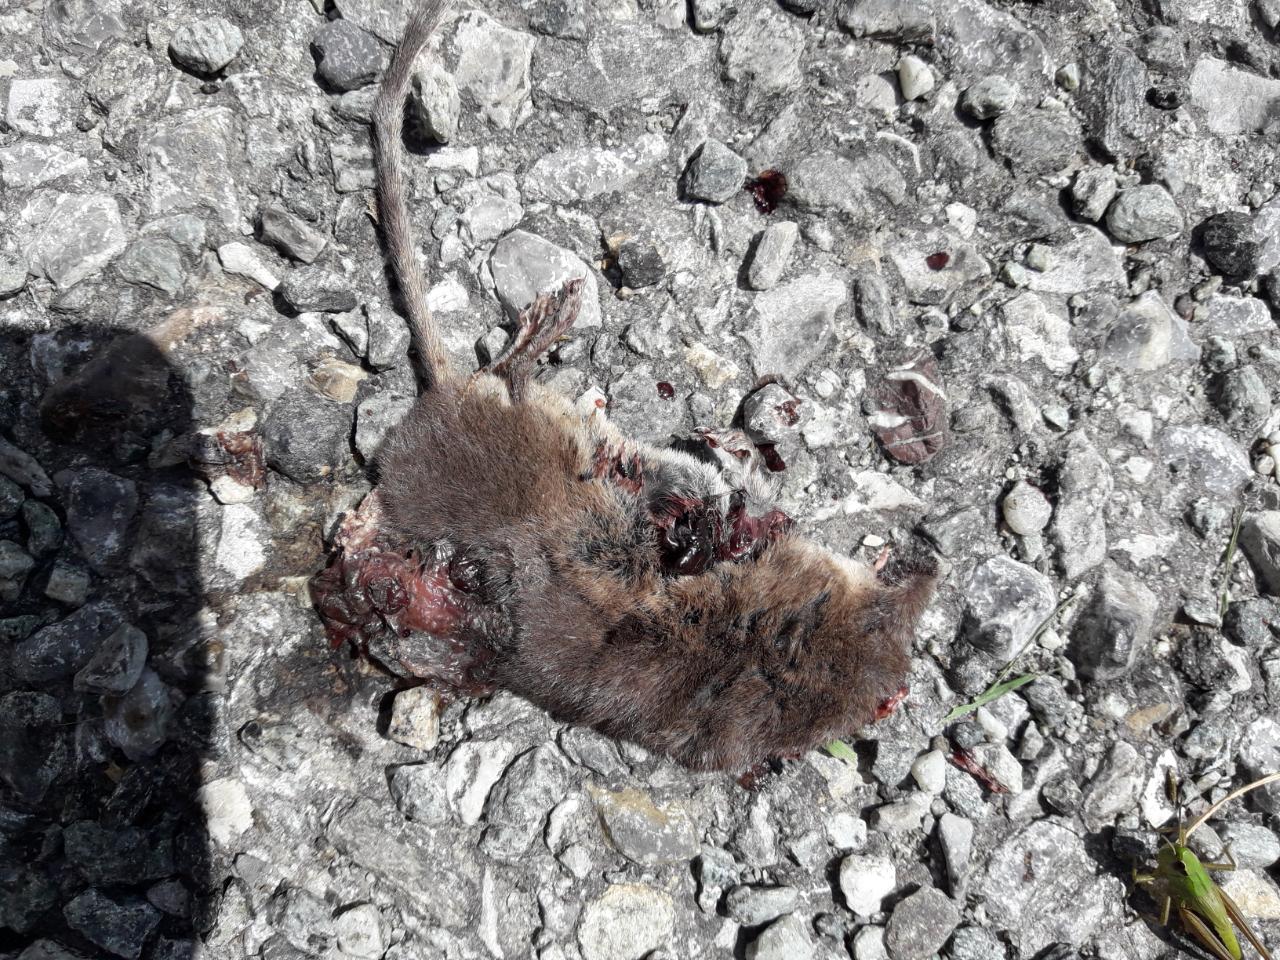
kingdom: Animalia
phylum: Chordata
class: Mammalia
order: Soricomorpha
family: Soricidae
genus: Sorex
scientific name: Sorex araneus
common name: Common shrew
